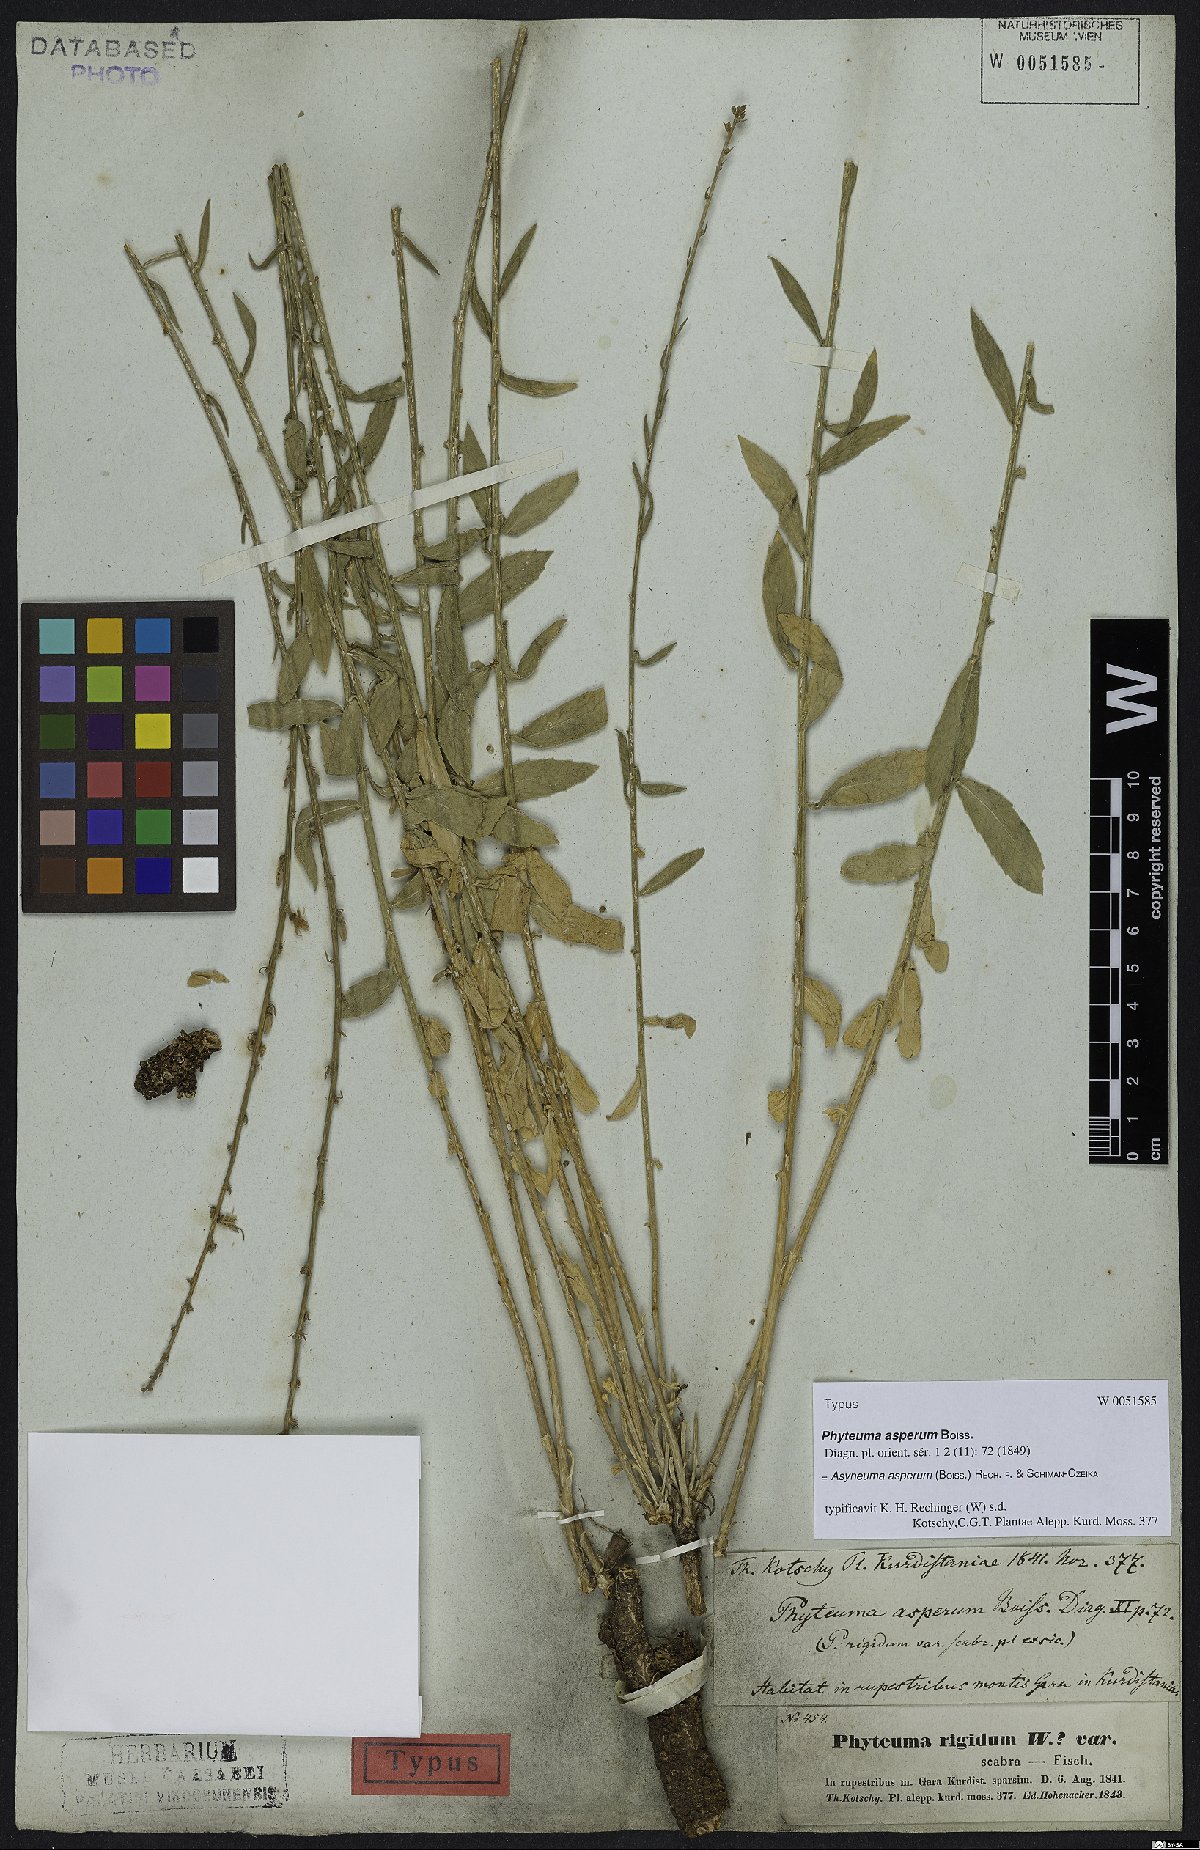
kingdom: Plantae
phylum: Tracheophyta
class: Magnoliopsida
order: Asterales
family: Campanulaceae
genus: Asyneuma
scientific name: Asyneuma persicum
